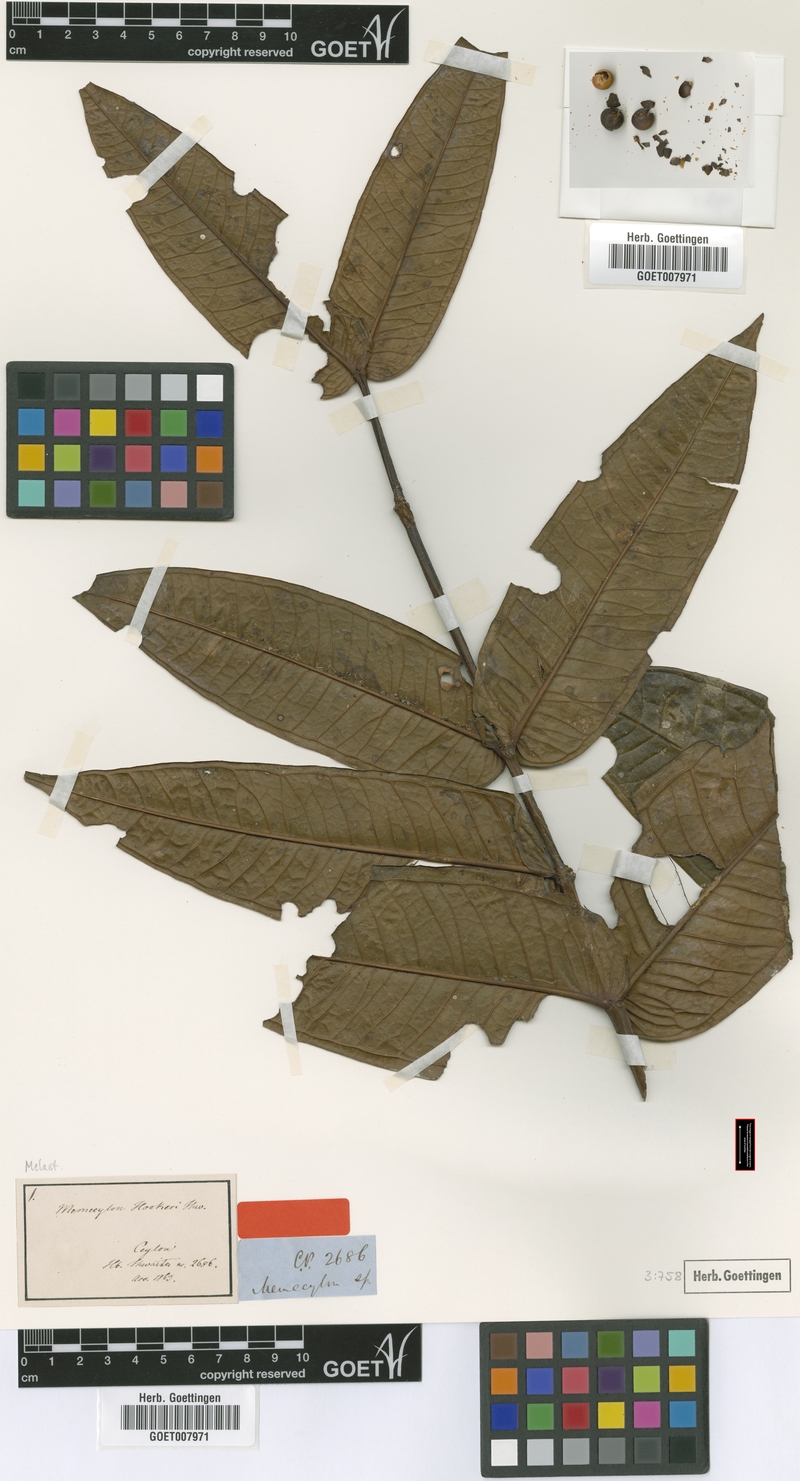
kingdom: Plantae
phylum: Tracheophyta
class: Magnoliopsida
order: Myrtales
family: Melastomataceae
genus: Memecylon
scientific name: Memecylon hookeri
